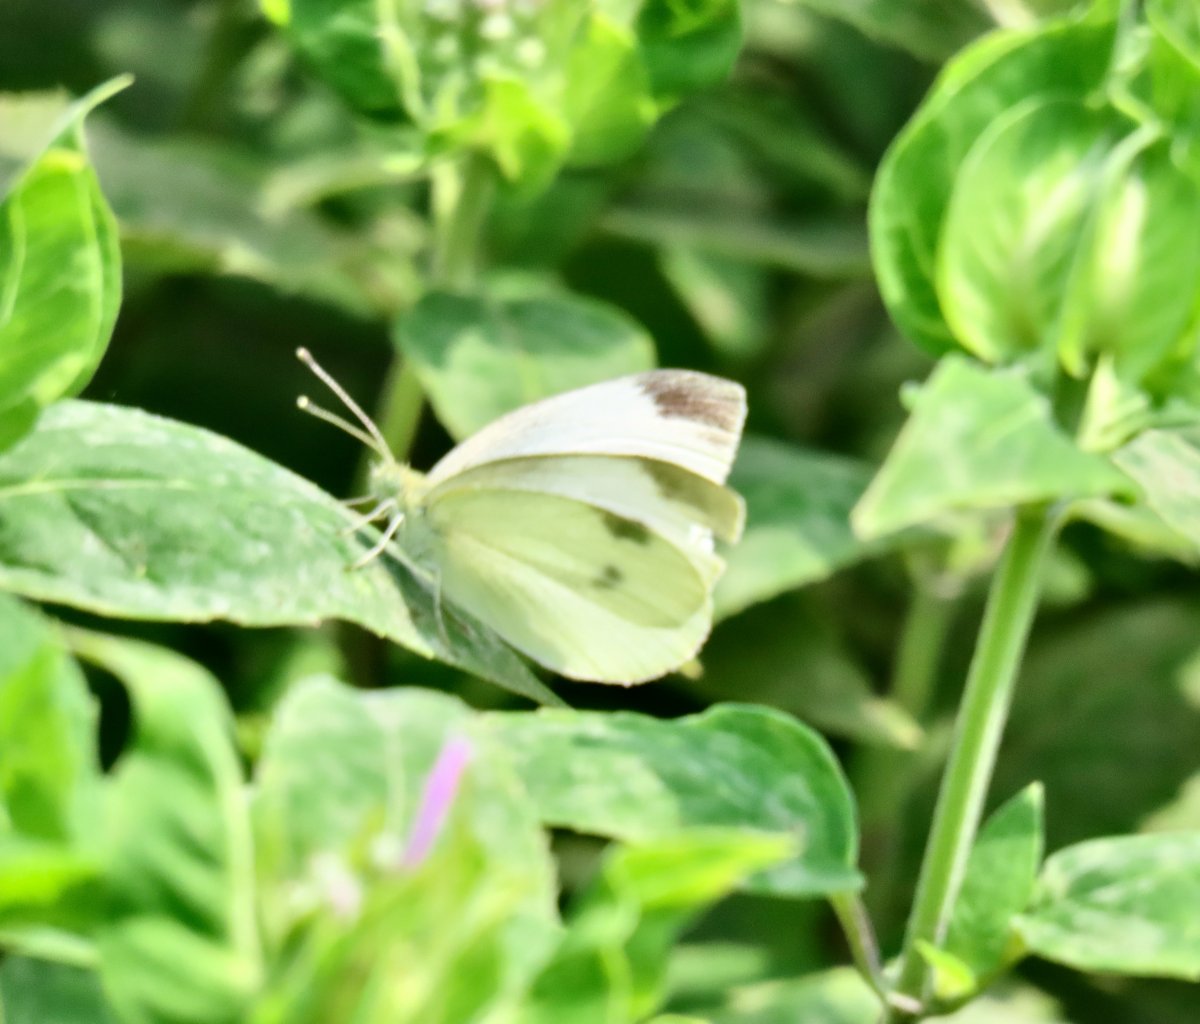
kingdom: Animalia
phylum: Arthropoda
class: Insecta
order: Lepidoptera
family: Pieridae
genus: Pieris
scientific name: Pieris rapae
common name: Cabbage White
